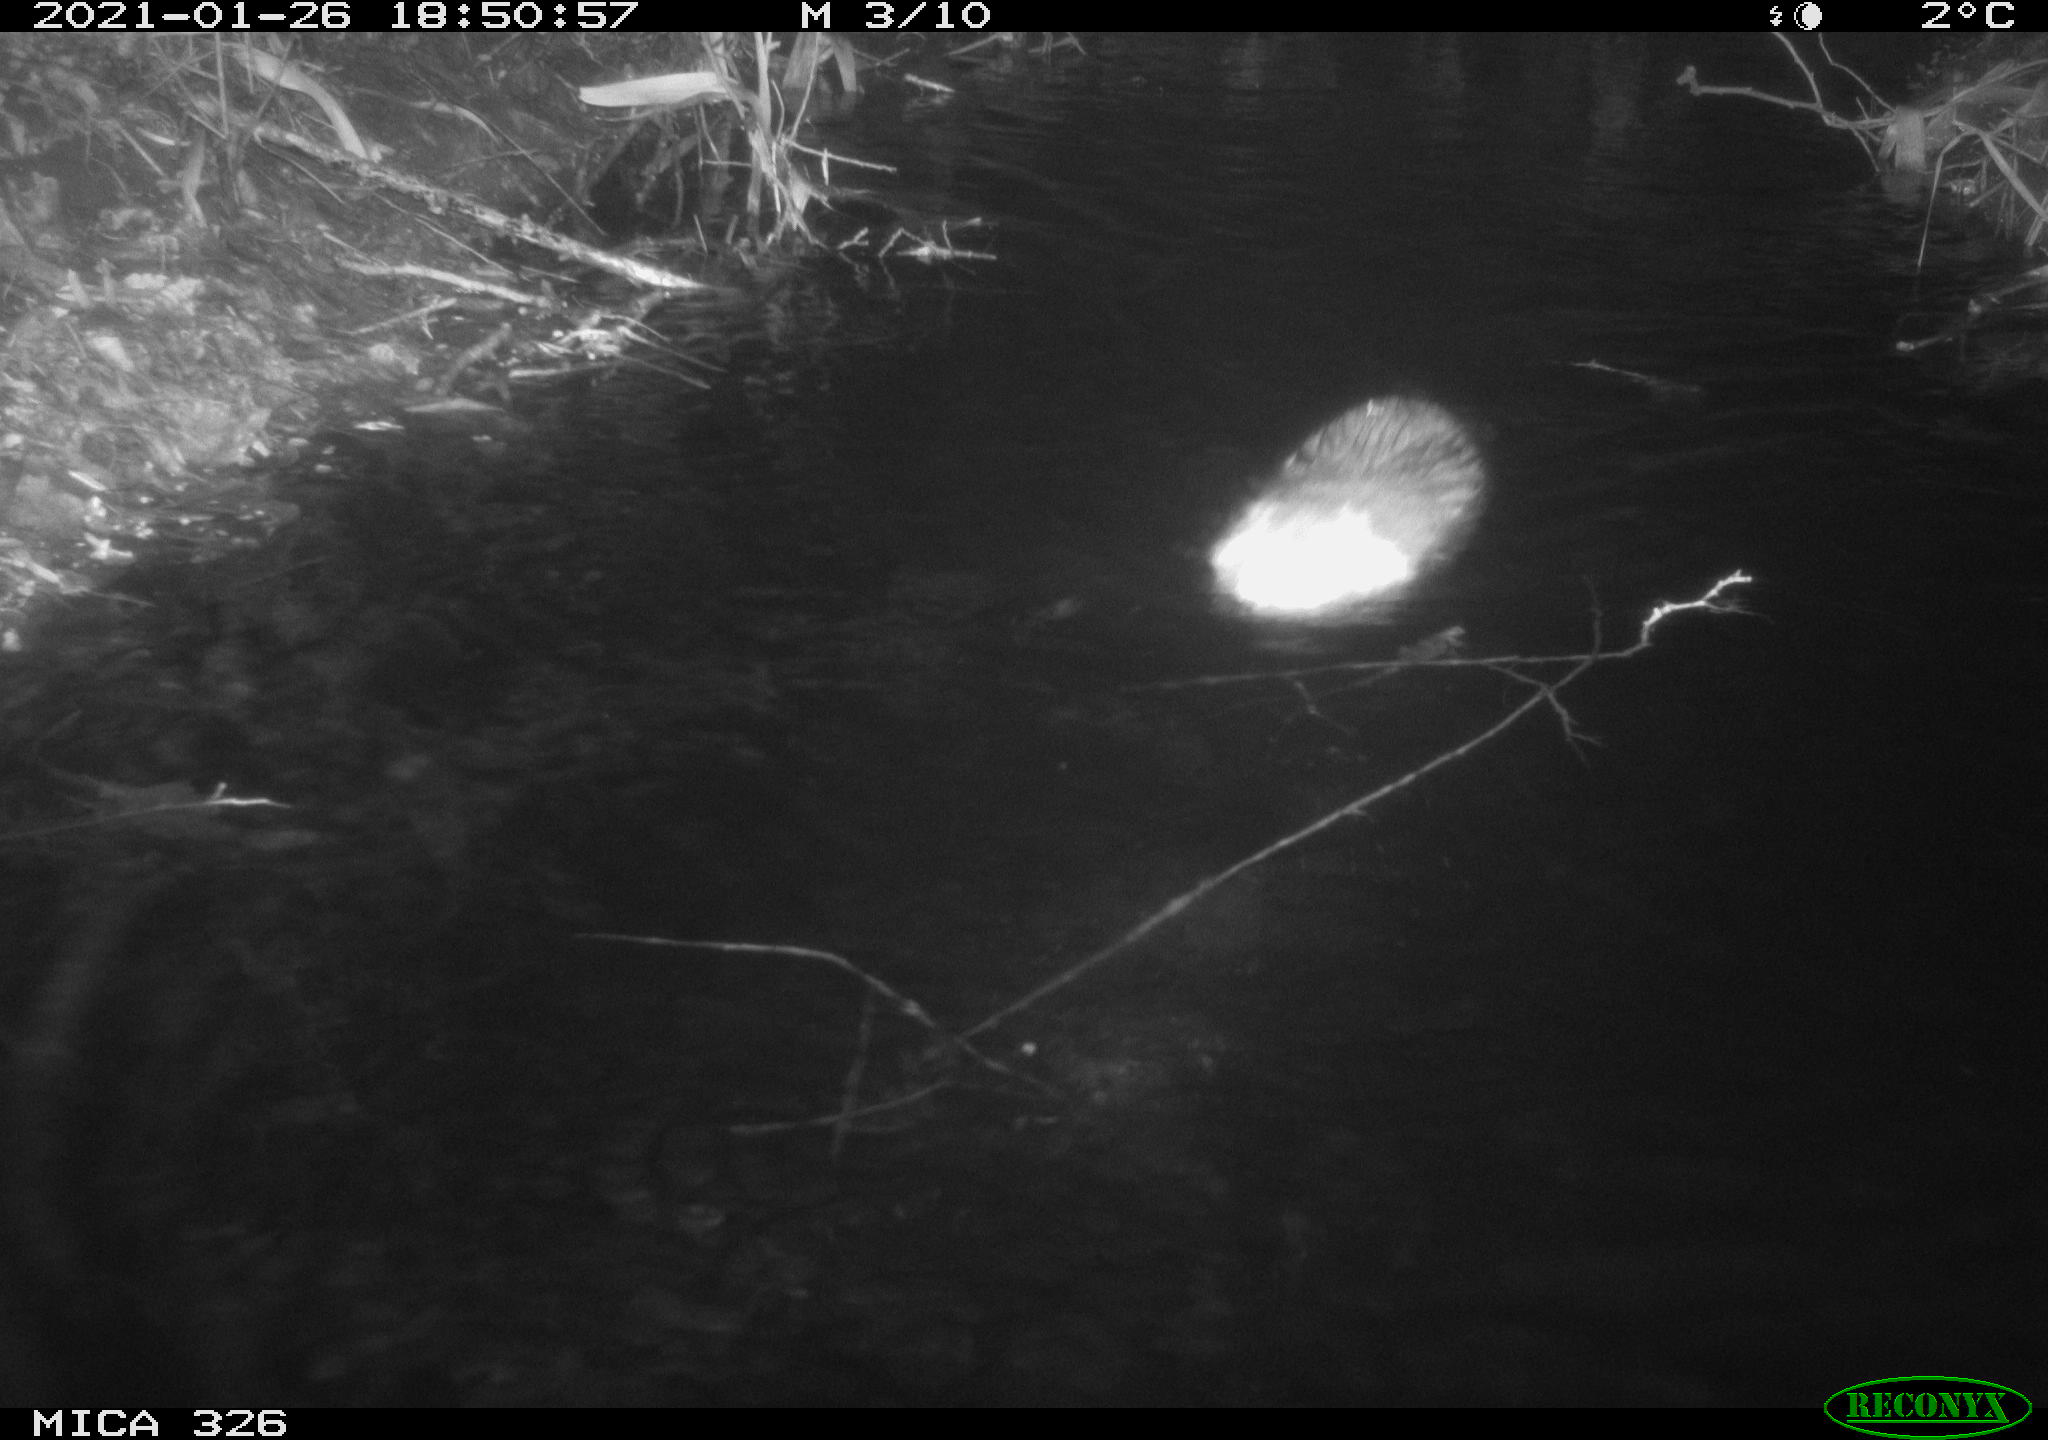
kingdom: Animalia
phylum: Chordata
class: Mammalia
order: Rodentia
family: Myocastoridae
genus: Myocastor
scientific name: Myocastor coypus
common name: Coypu
